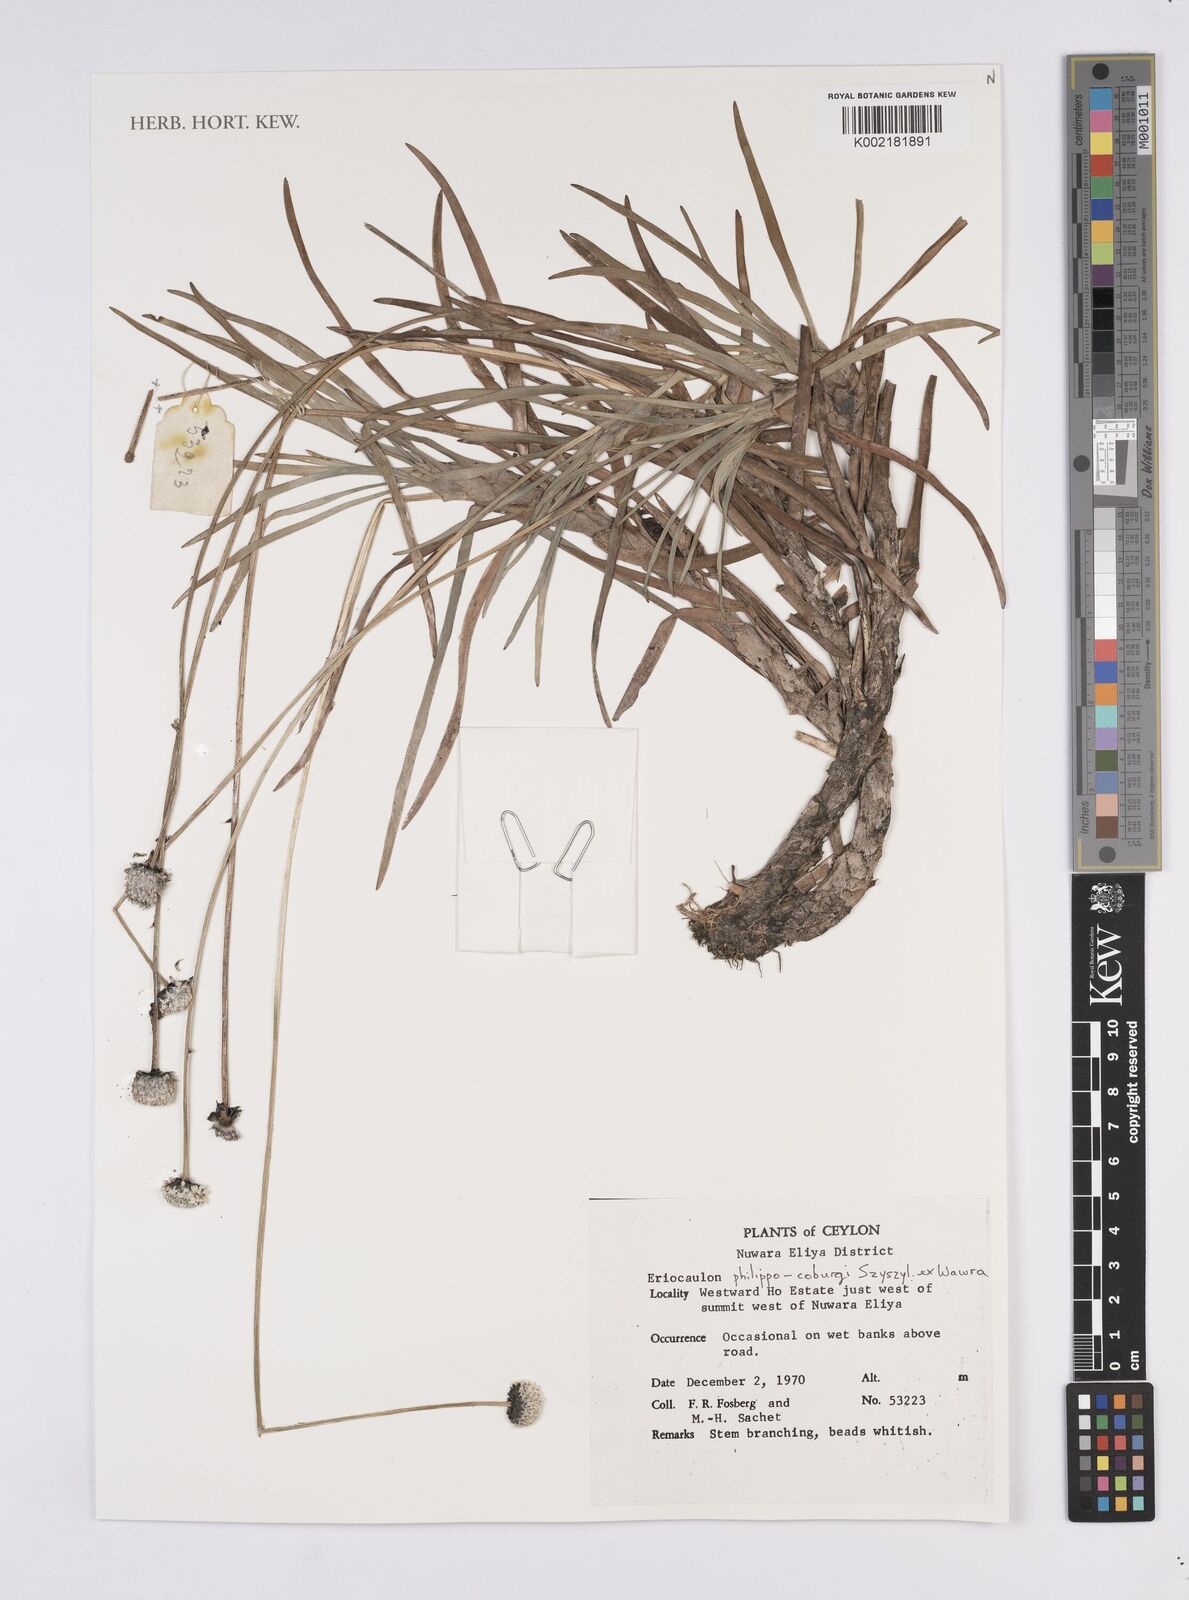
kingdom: Plantae
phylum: Tracheophyta
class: Liliopsida
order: Poales
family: Eriocaulaceae
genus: Eriocaulon
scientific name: Eriocaulon philippo-coburgii
